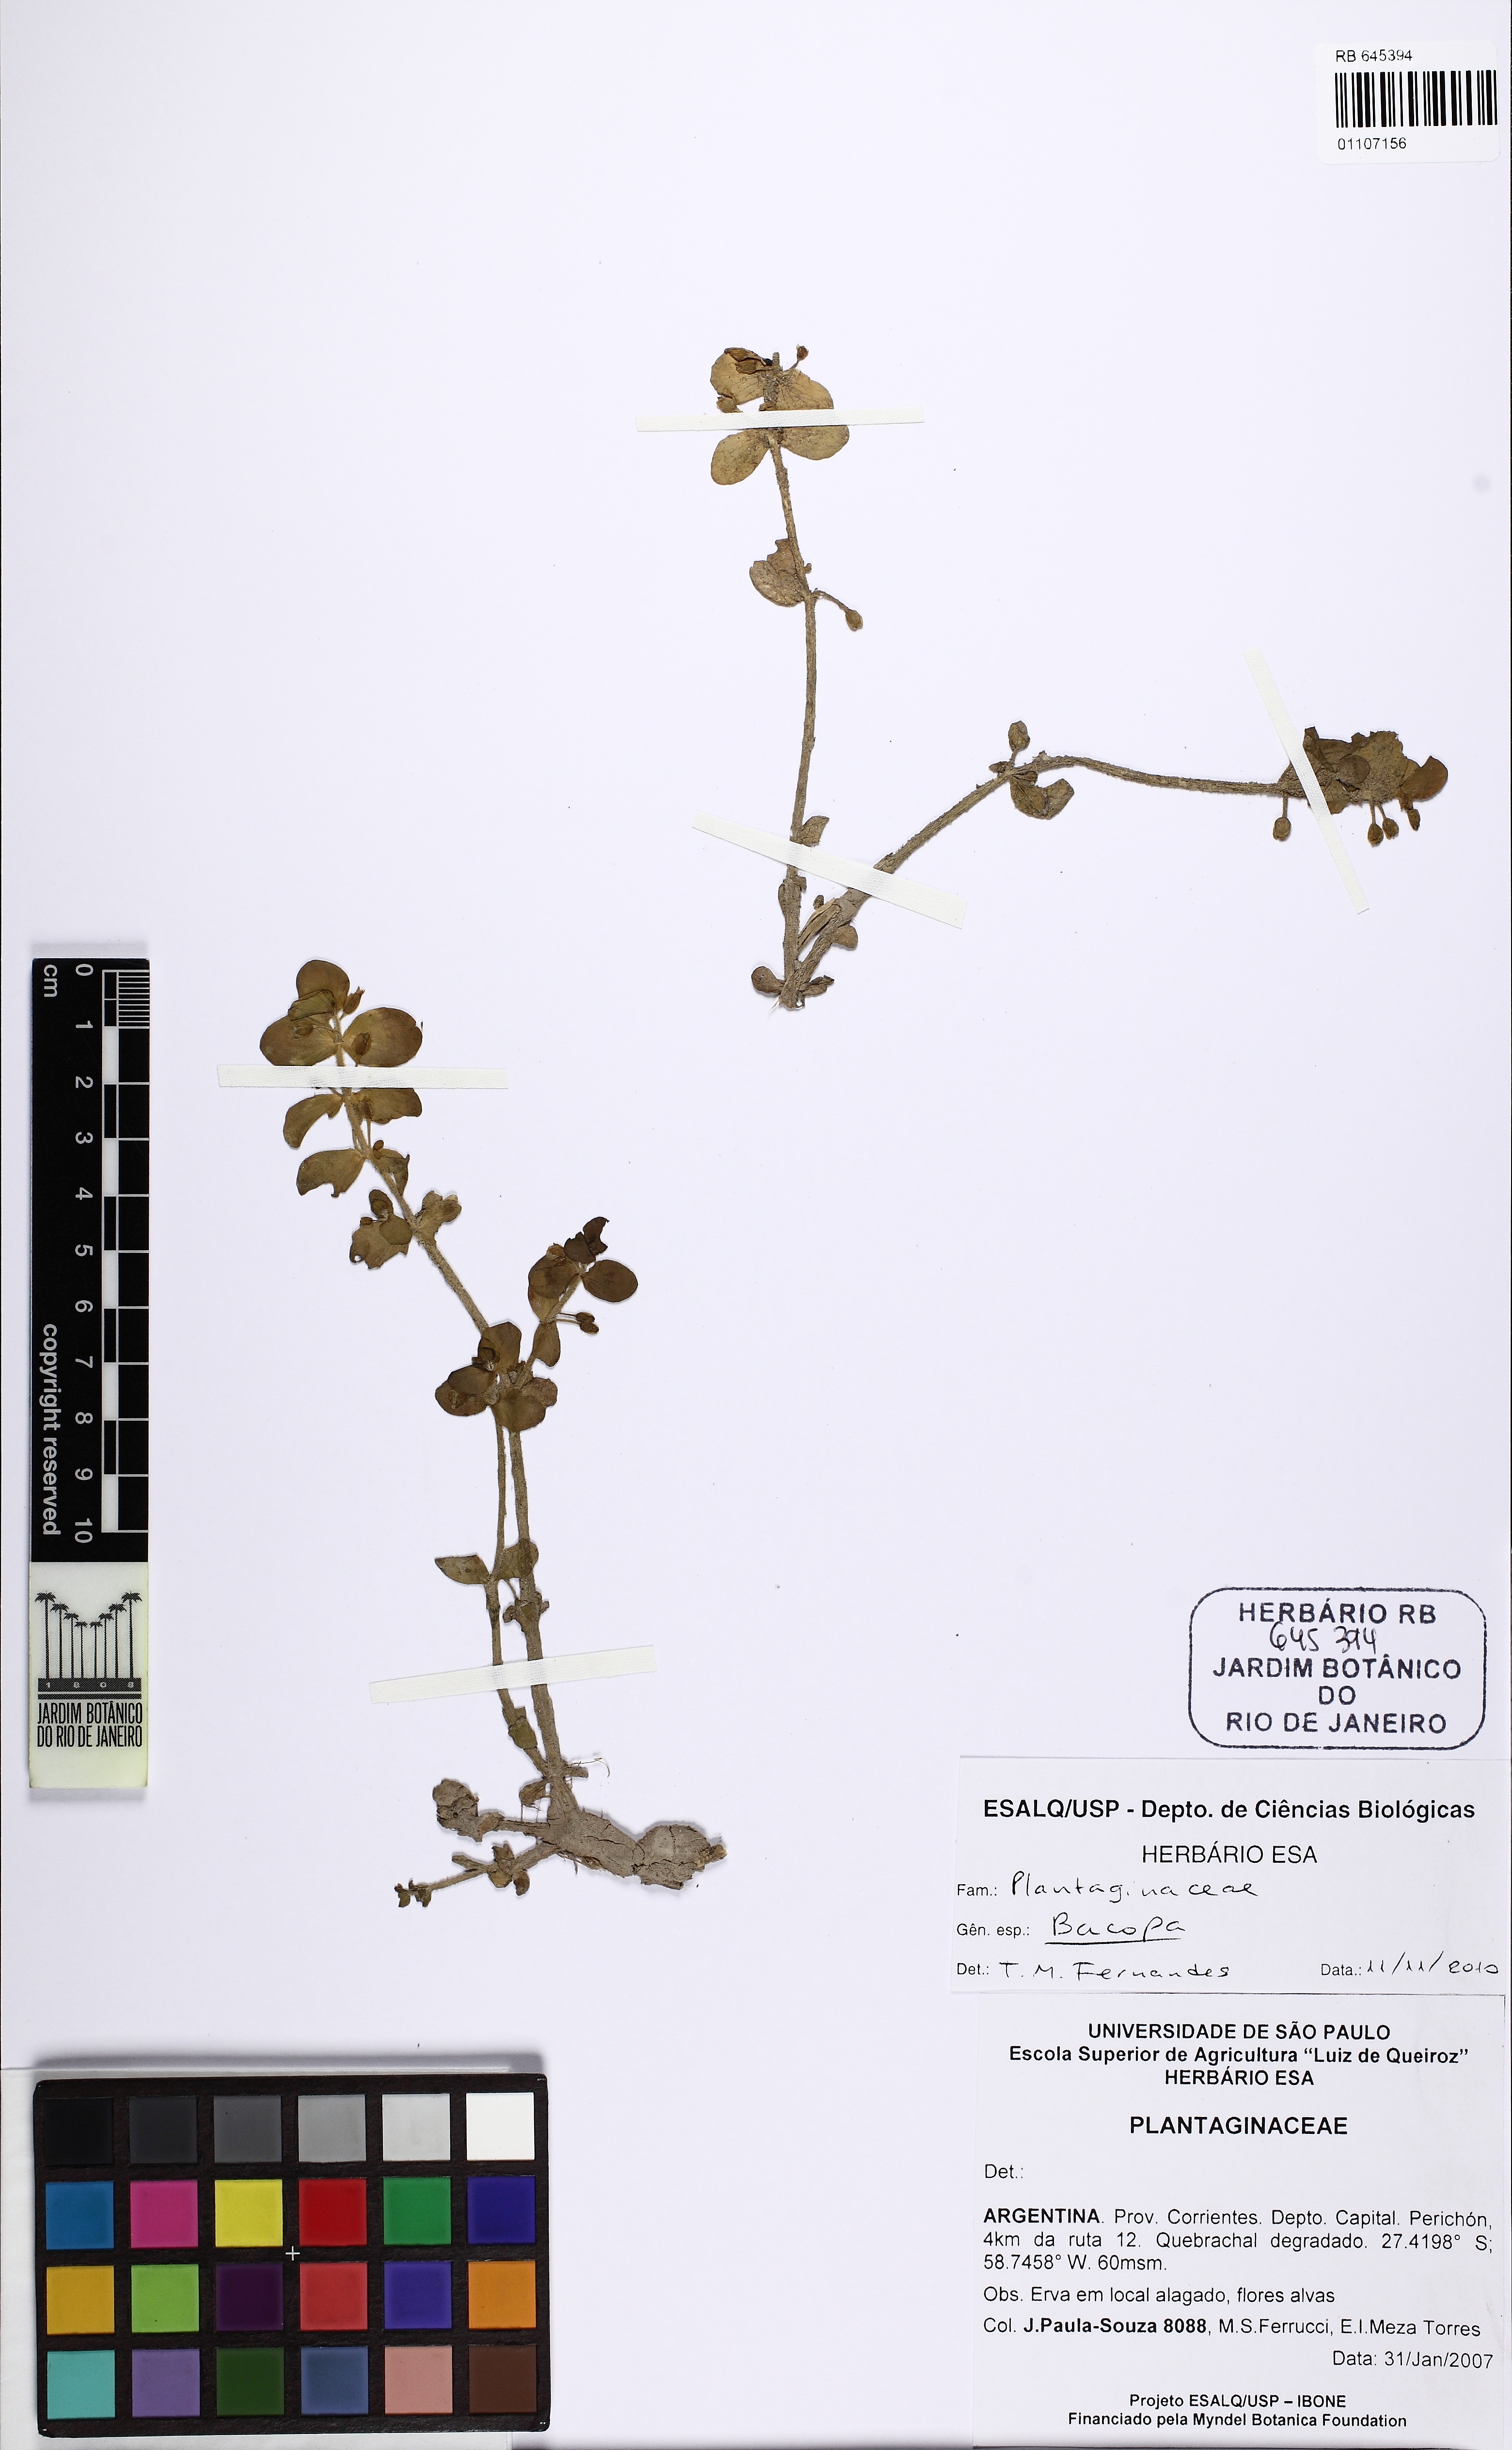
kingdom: Plantae
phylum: Tracheophyta
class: Magnoliopsida
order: Lamiales
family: Plantaginaceae
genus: Bacopa
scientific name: Bacopa
